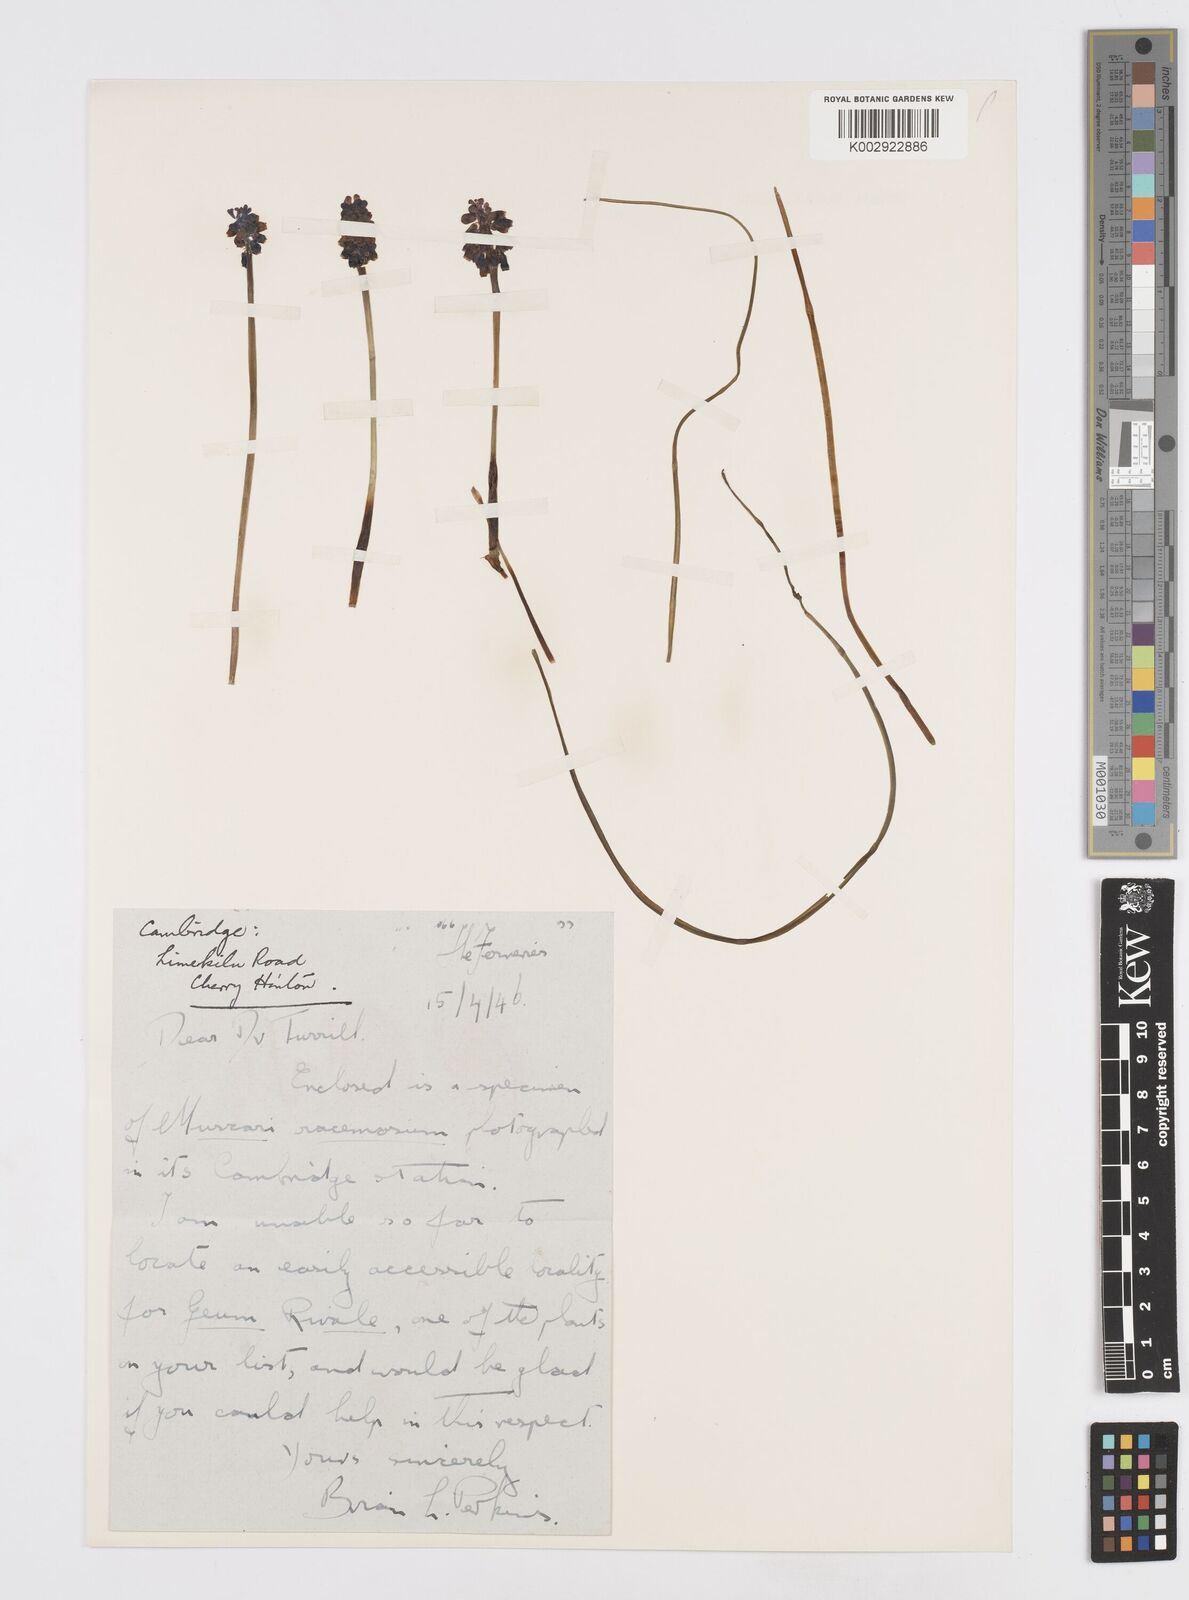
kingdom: Plantae
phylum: Tracheophyta
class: Liliopsida
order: Asparagales
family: Asparagaceae
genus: Muscarimia
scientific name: Muscarimia muscari
